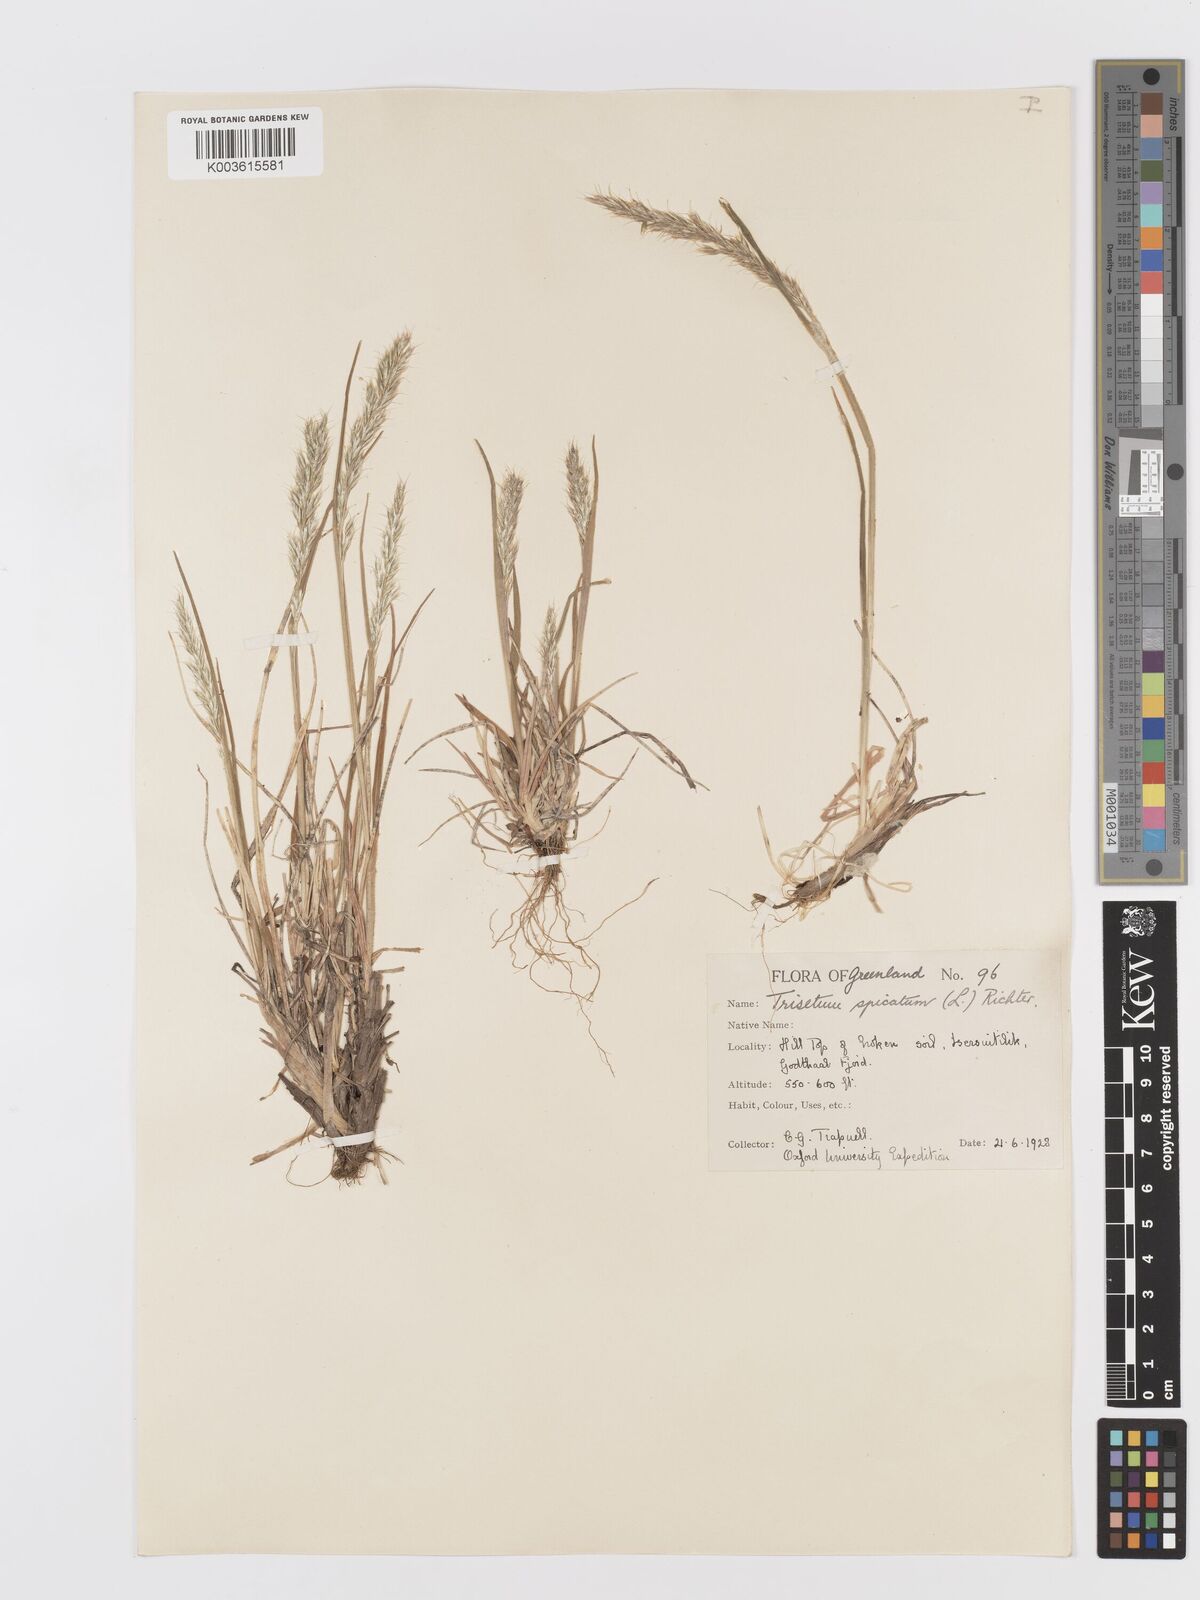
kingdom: Plantae
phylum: Tracheophyta
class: Liliopsida
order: Poales
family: Poaceae
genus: Koeleria
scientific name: Koeleria spicata
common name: Mountain trisetum
